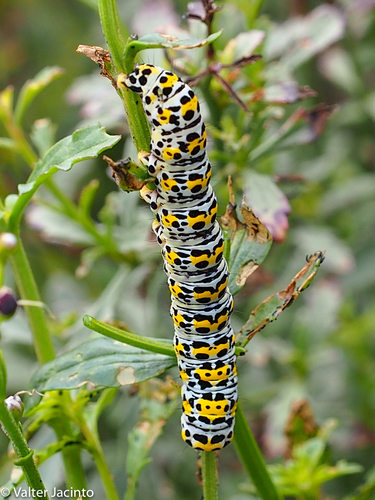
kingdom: Animalia
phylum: Arthropoda
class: Insecta
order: Lepidoptera
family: Noctuidae
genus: Cucullia
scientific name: Cucullia verbasci
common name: Mullein
